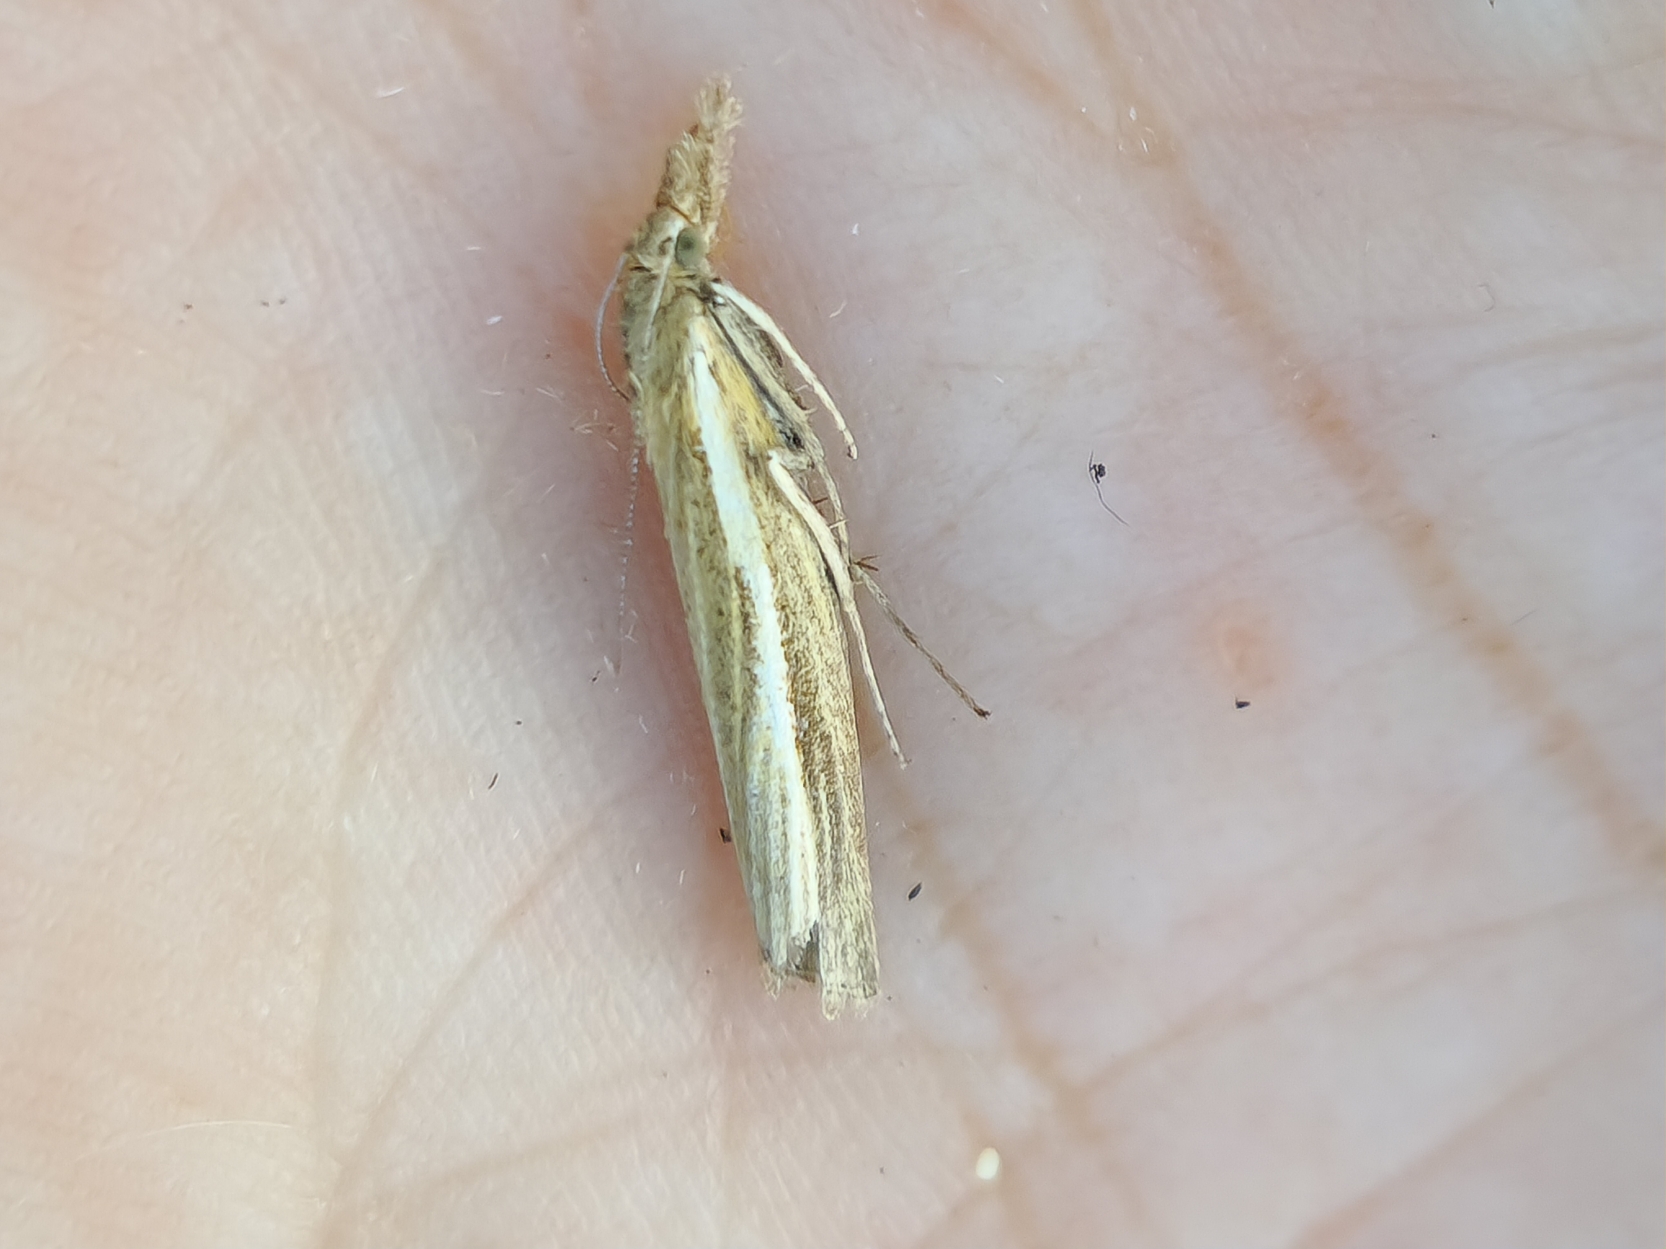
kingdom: Animalia
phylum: Arthropoda
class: Insecta
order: Lepidoptera
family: Crambidae
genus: Agriphila
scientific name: Agriphila tristellus
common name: Okkergult græsmøl
